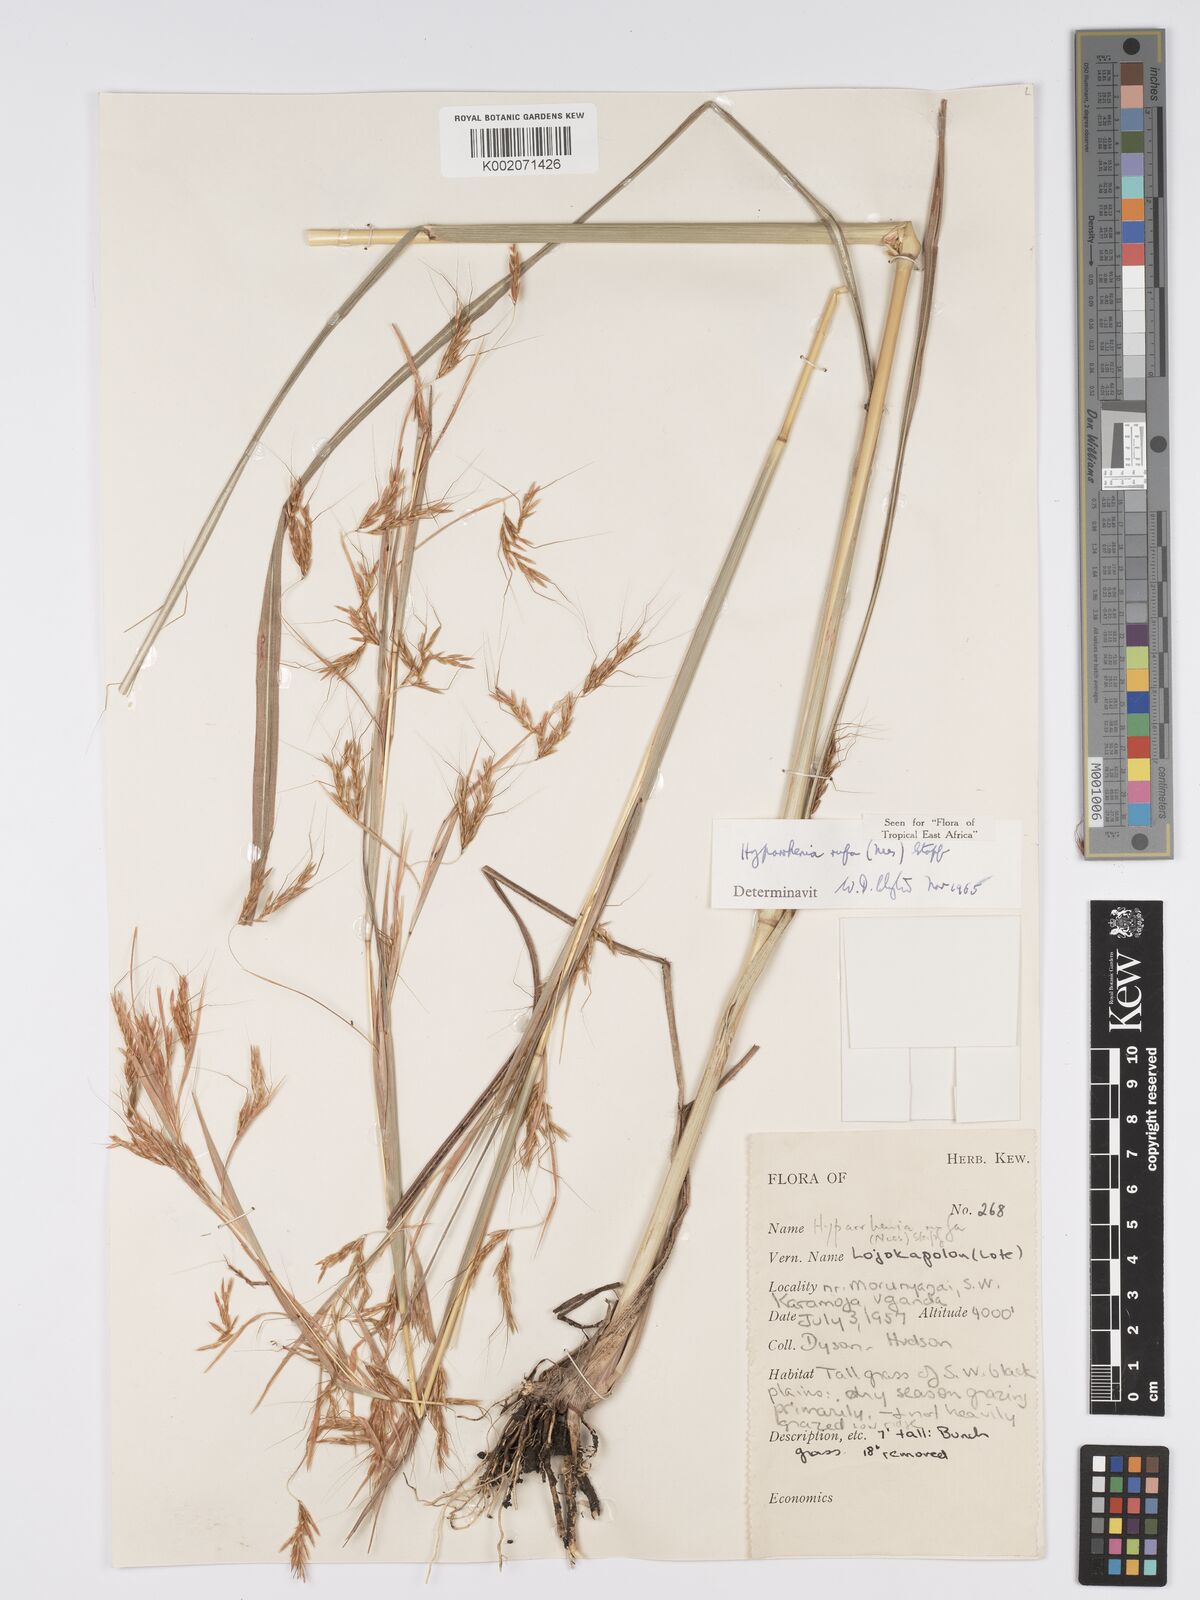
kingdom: Plantae
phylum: Tracheophyta
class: Liliopsida
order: Poales
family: Poaceae
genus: Hyparrhenia
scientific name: Hyparrhenia rufa
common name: Jaraguagrass
